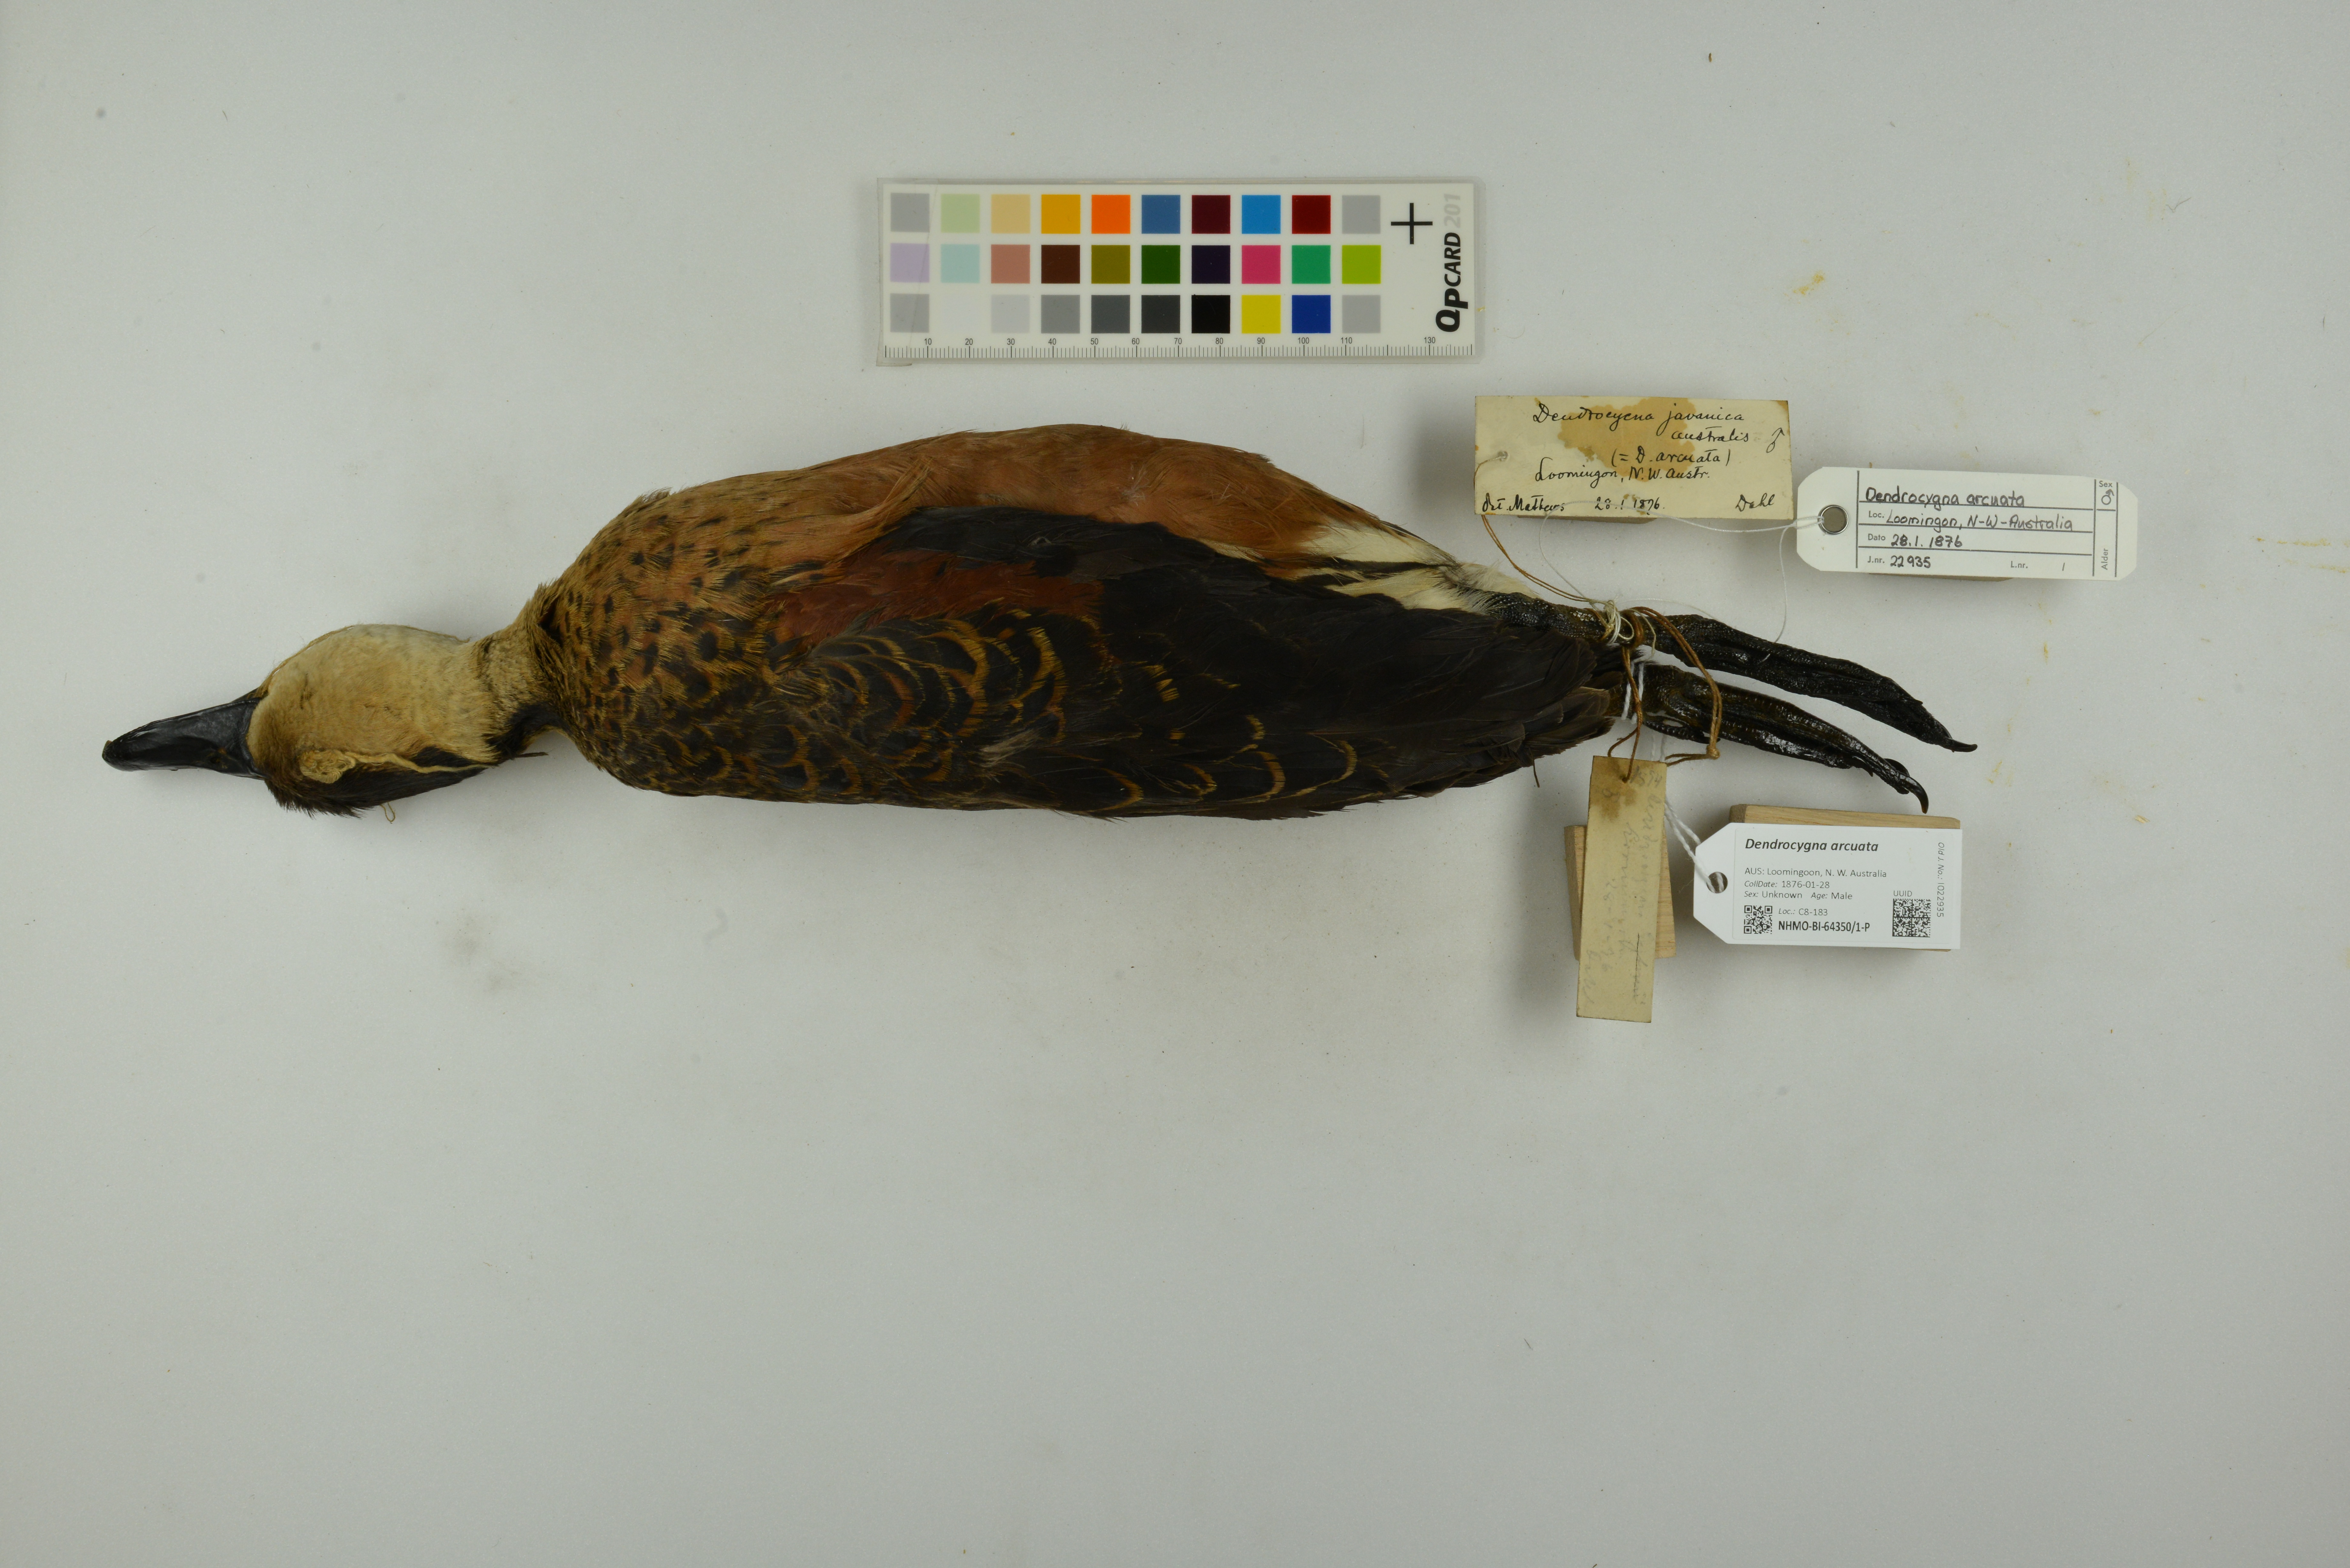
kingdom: Animalia
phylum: Chordata
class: Aves
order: Anseriformes
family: Anatidae
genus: Dendrocygna
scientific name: Dendrocygna arcuata
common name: Wandering whistling-duck
